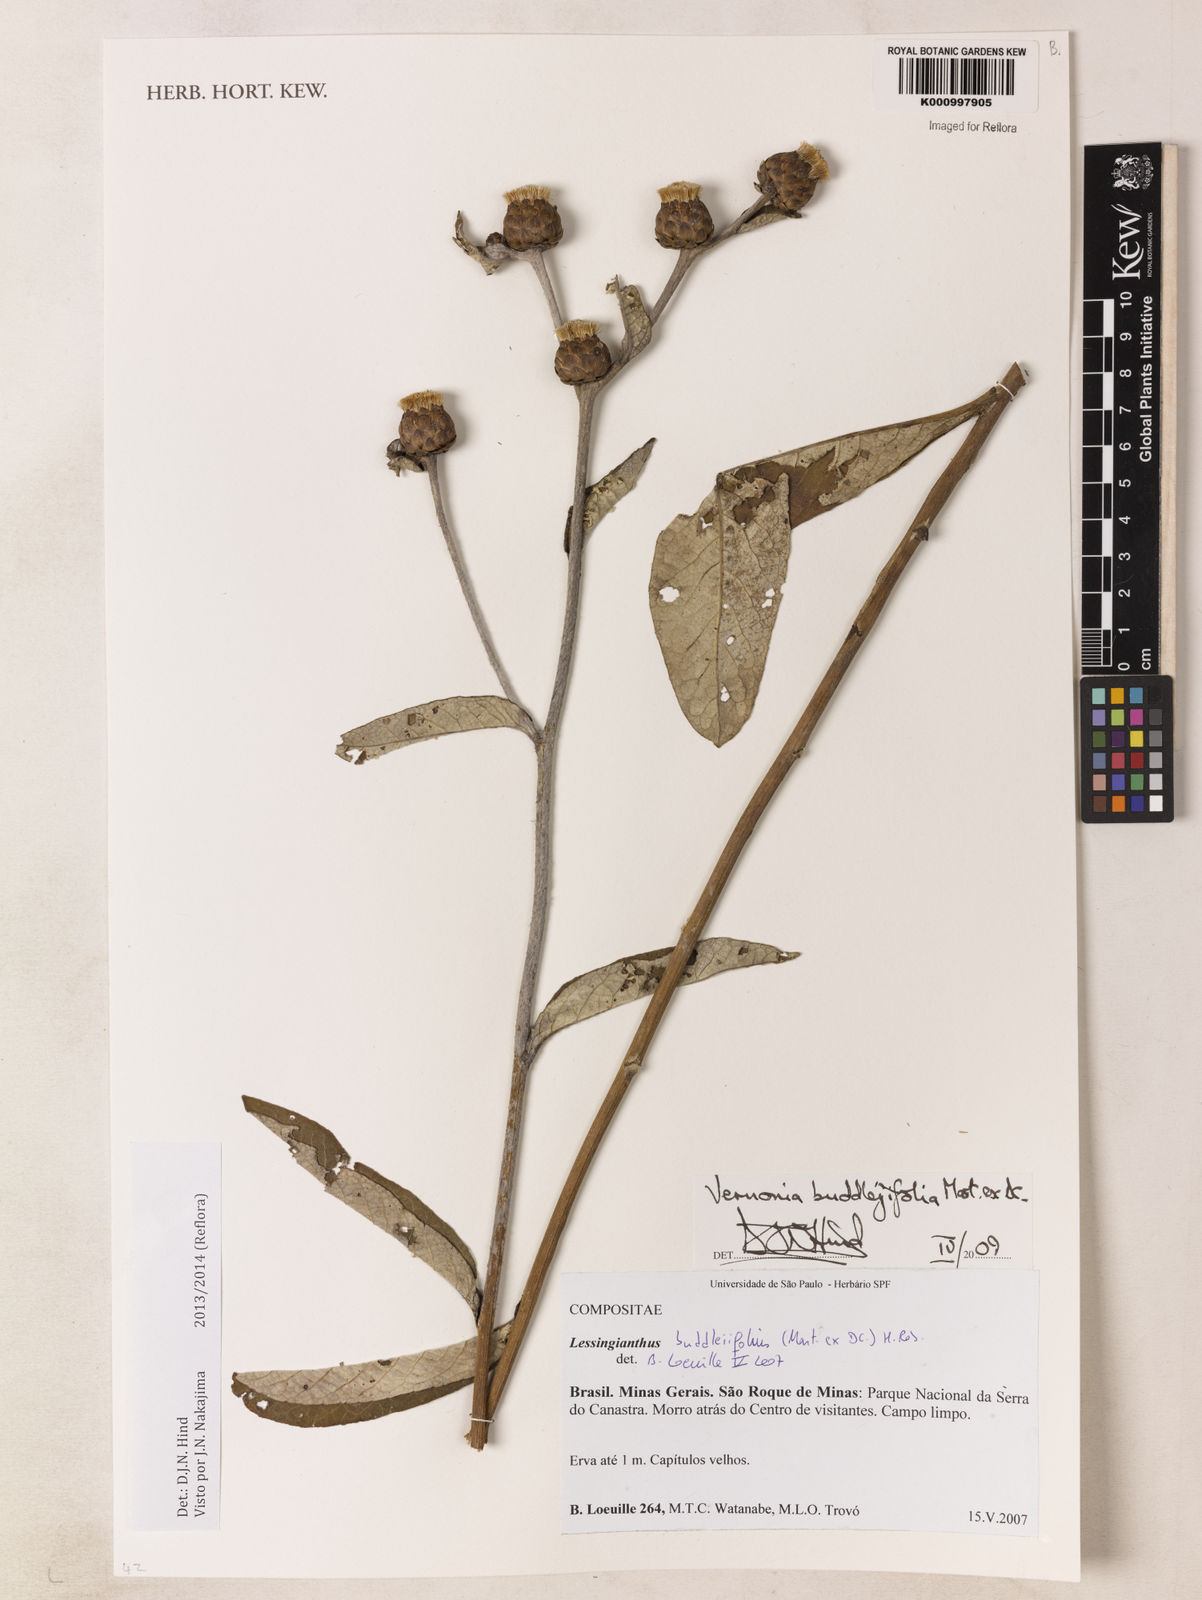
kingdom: Plantae
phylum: Tracheophyta
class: Magnoliopsida
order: Asterales
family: Asteraceae
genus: Lessingianthus
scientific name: Lessingianthus buddlejifolius
